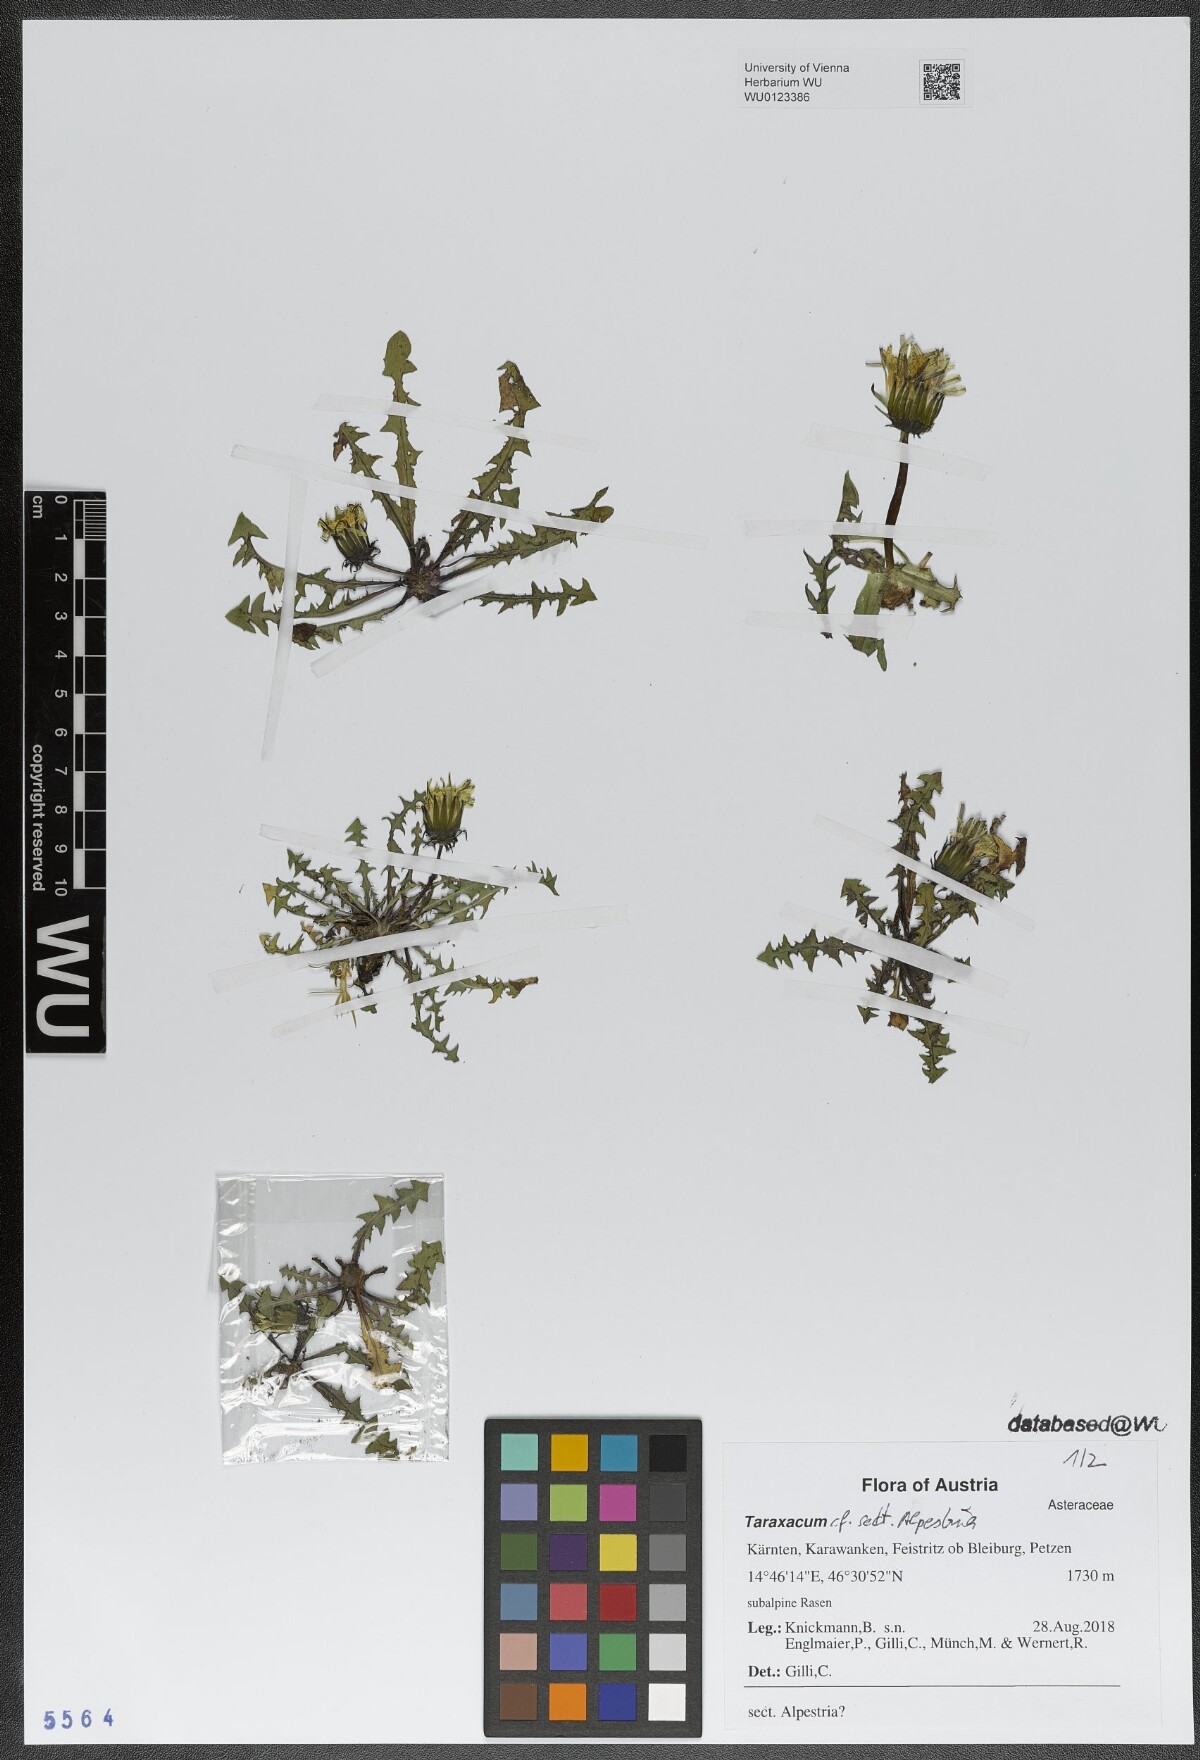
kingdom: Plantae
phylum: Tracheophyta
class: Magnoliopsida
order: Asterales
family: Asteraceae
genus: Taraxacum
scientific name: Taraxacum
